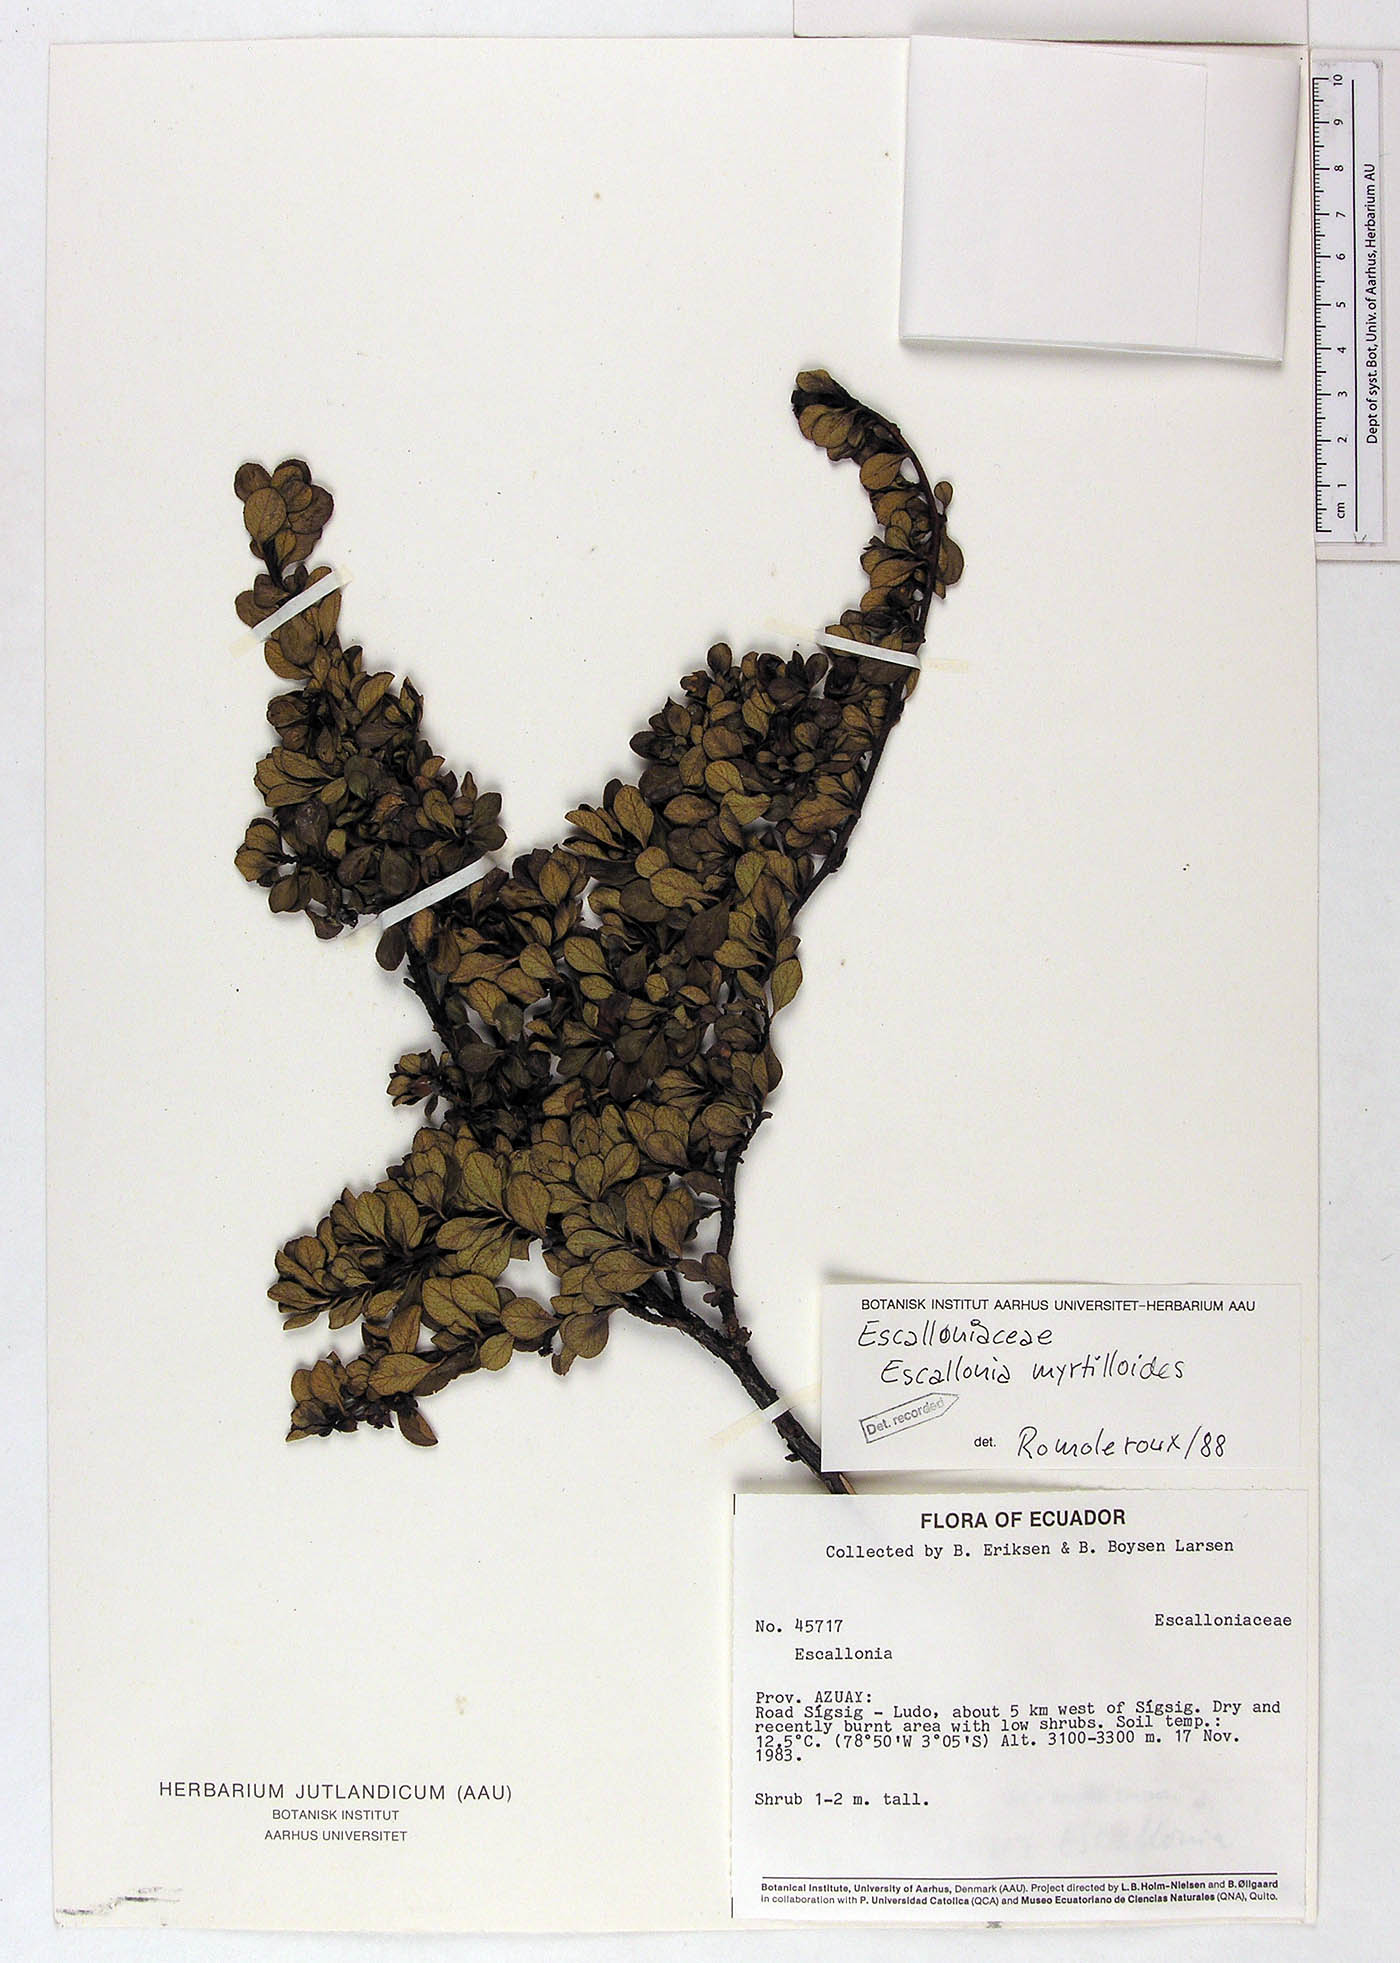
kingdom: Plantae
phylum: Tracheophyta
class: Magnoliopsida
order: Escalloniales
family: Escalloniaceae
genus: Escallonia
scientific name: Escallonia myrtilloides
